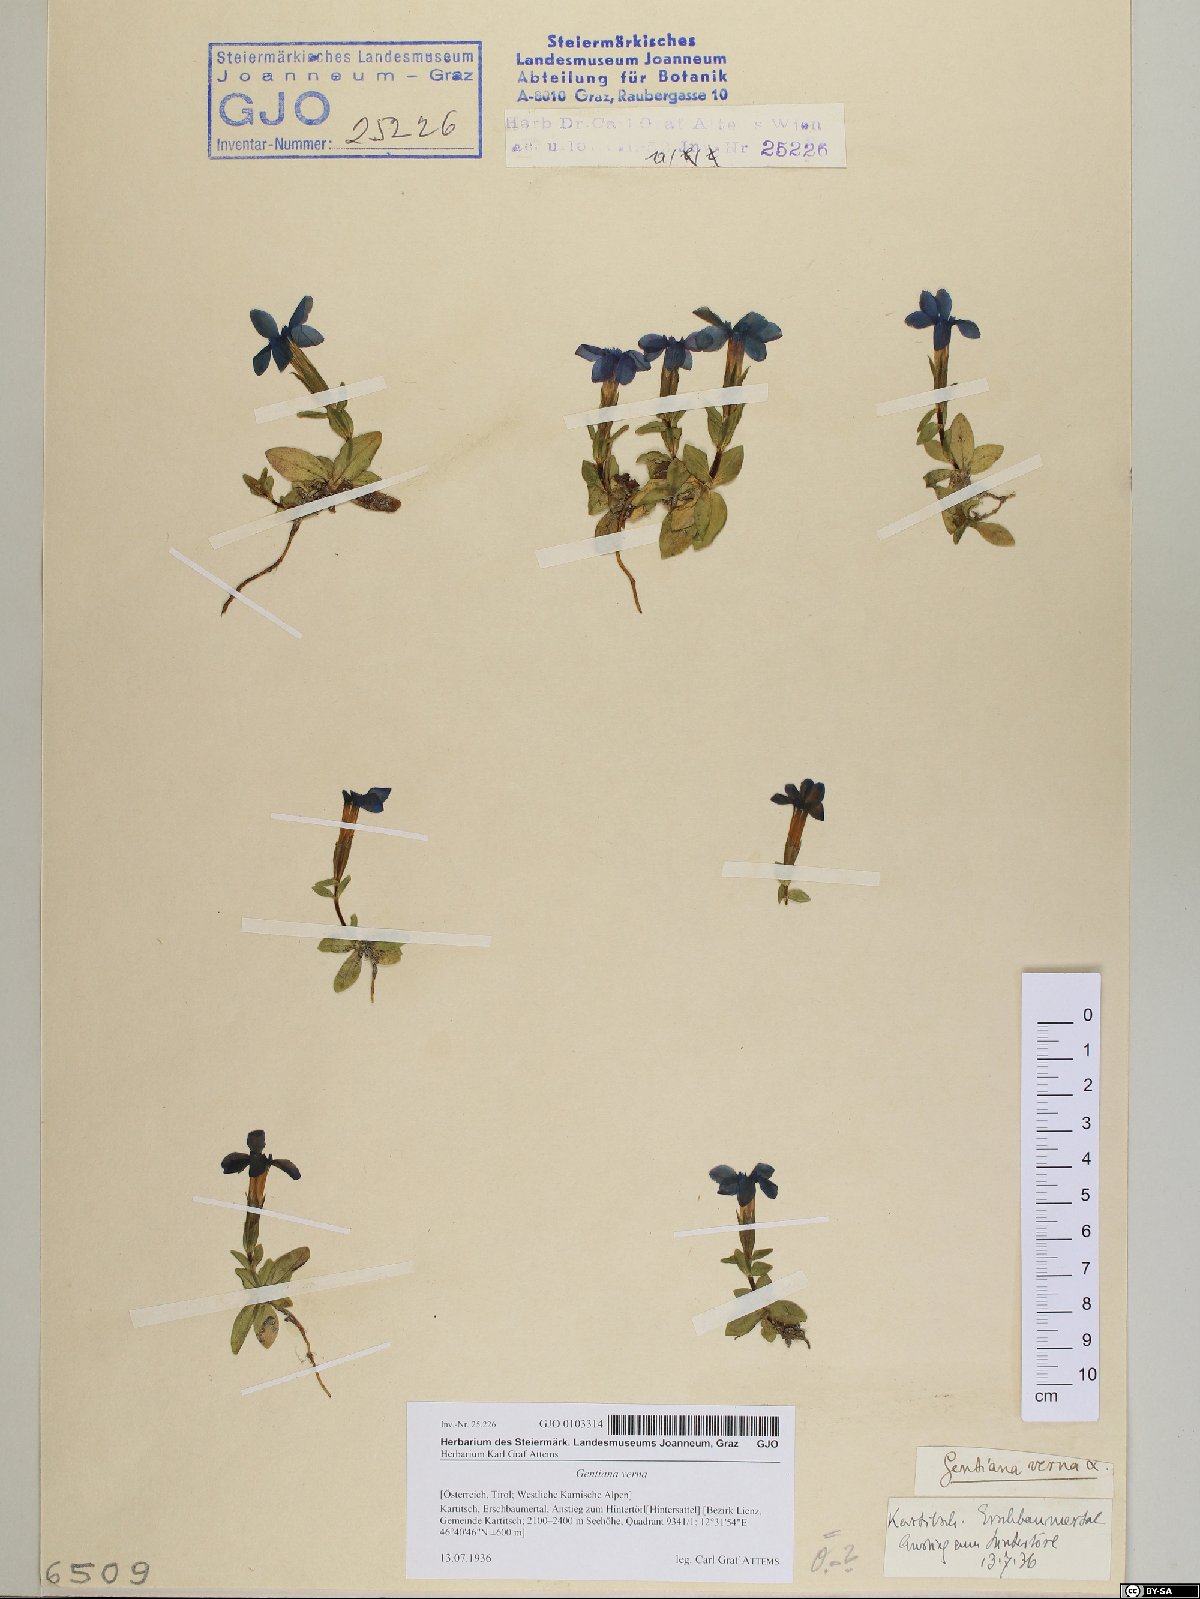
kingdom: Plantae
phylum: Tracheophyta
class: Magnoliopsida
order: Gentianales
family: Gentianaceae
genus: Gentiana
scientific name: Gentiana verna
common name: Spring gentian
